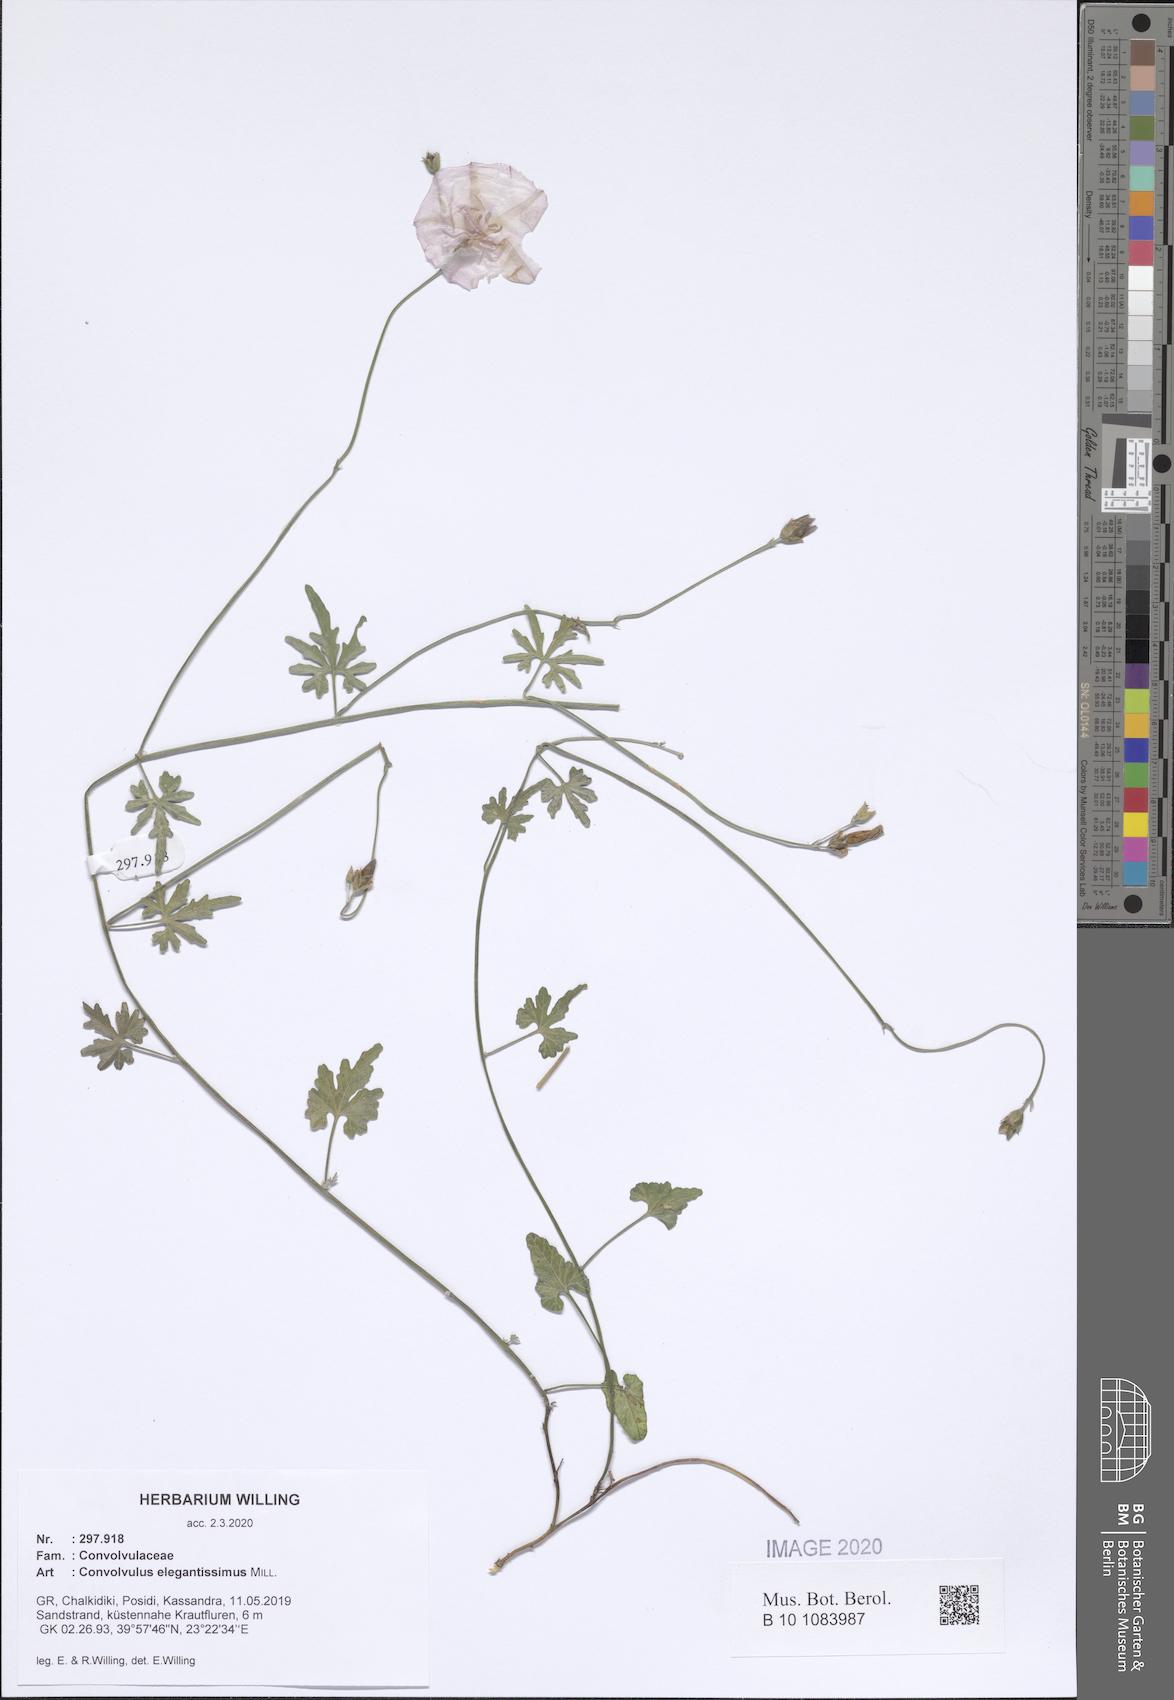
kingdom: Plantae
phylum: Tracheophyta
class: Magnoliopsida
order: Solanales
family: Convolvulaceae
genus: Convolvulus
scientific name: Convolvulus elegantissimus
